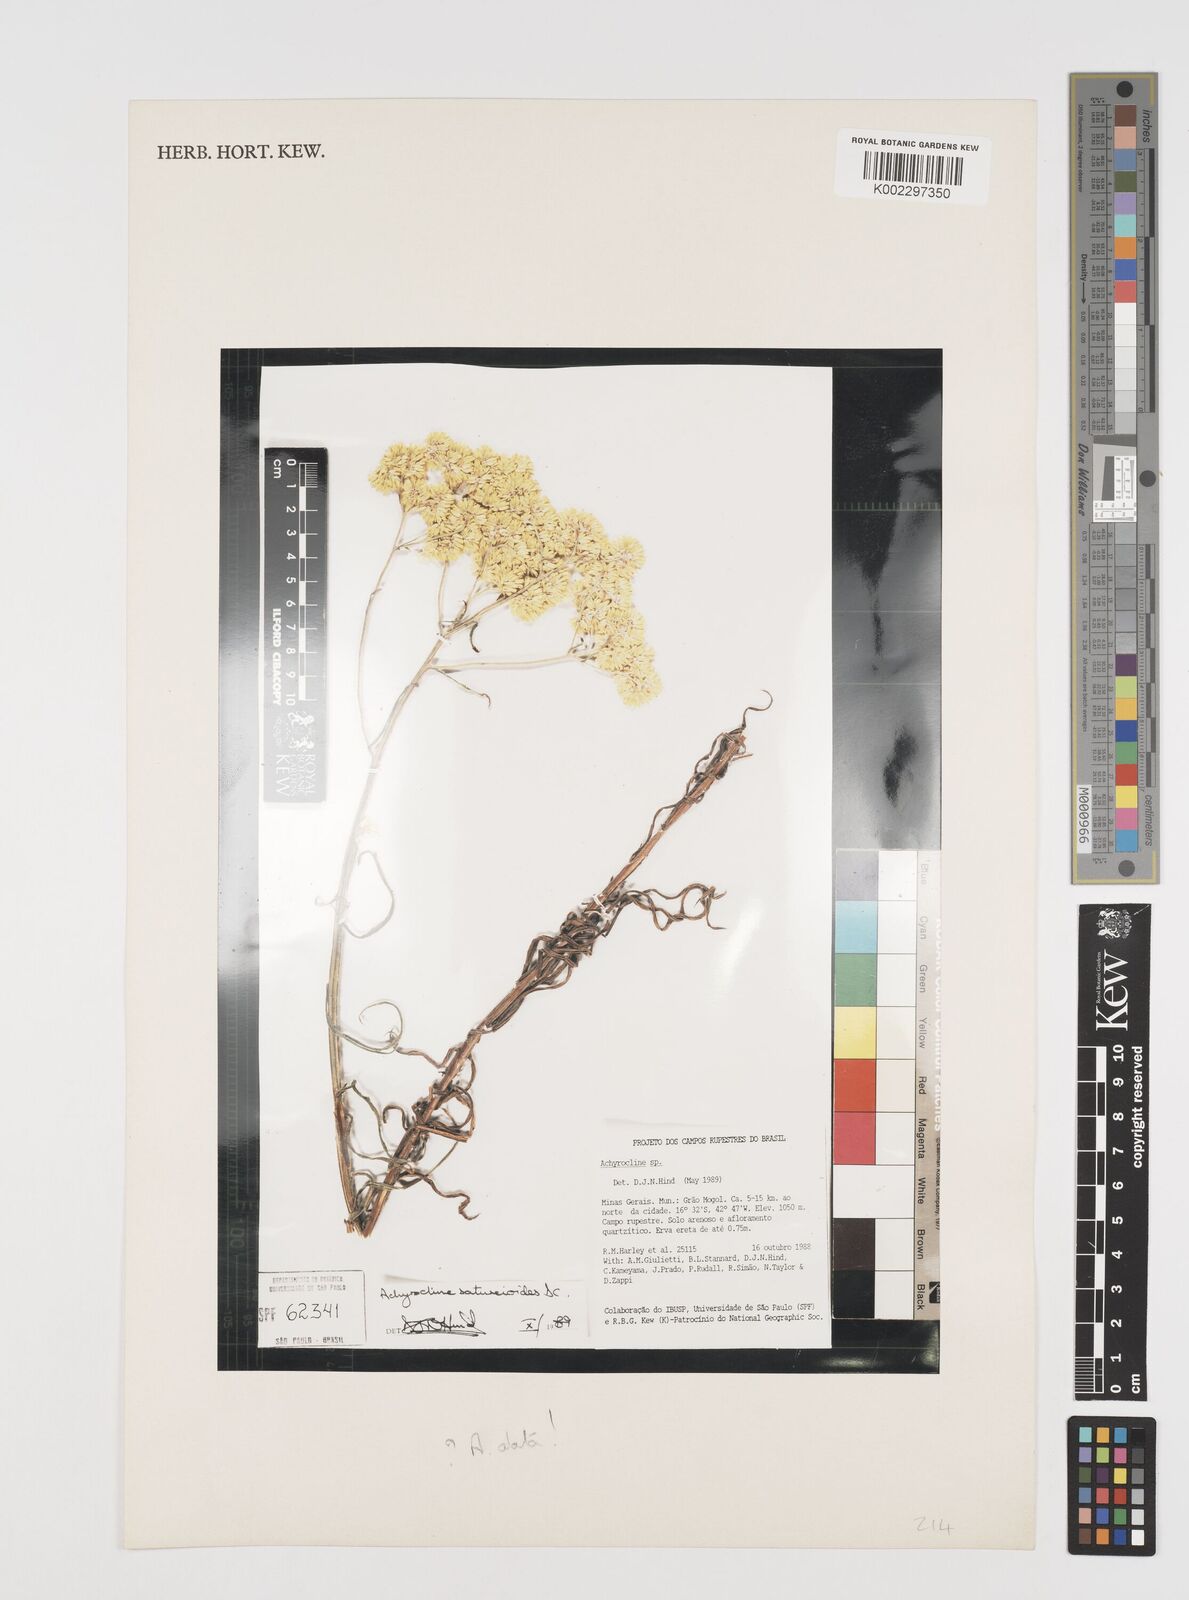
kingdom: Plantae
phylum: Tracheophyta
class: Magnoliopsida
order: Asterales
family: Asteraceae
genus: Achyrocline
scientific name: Achyrocline alata
